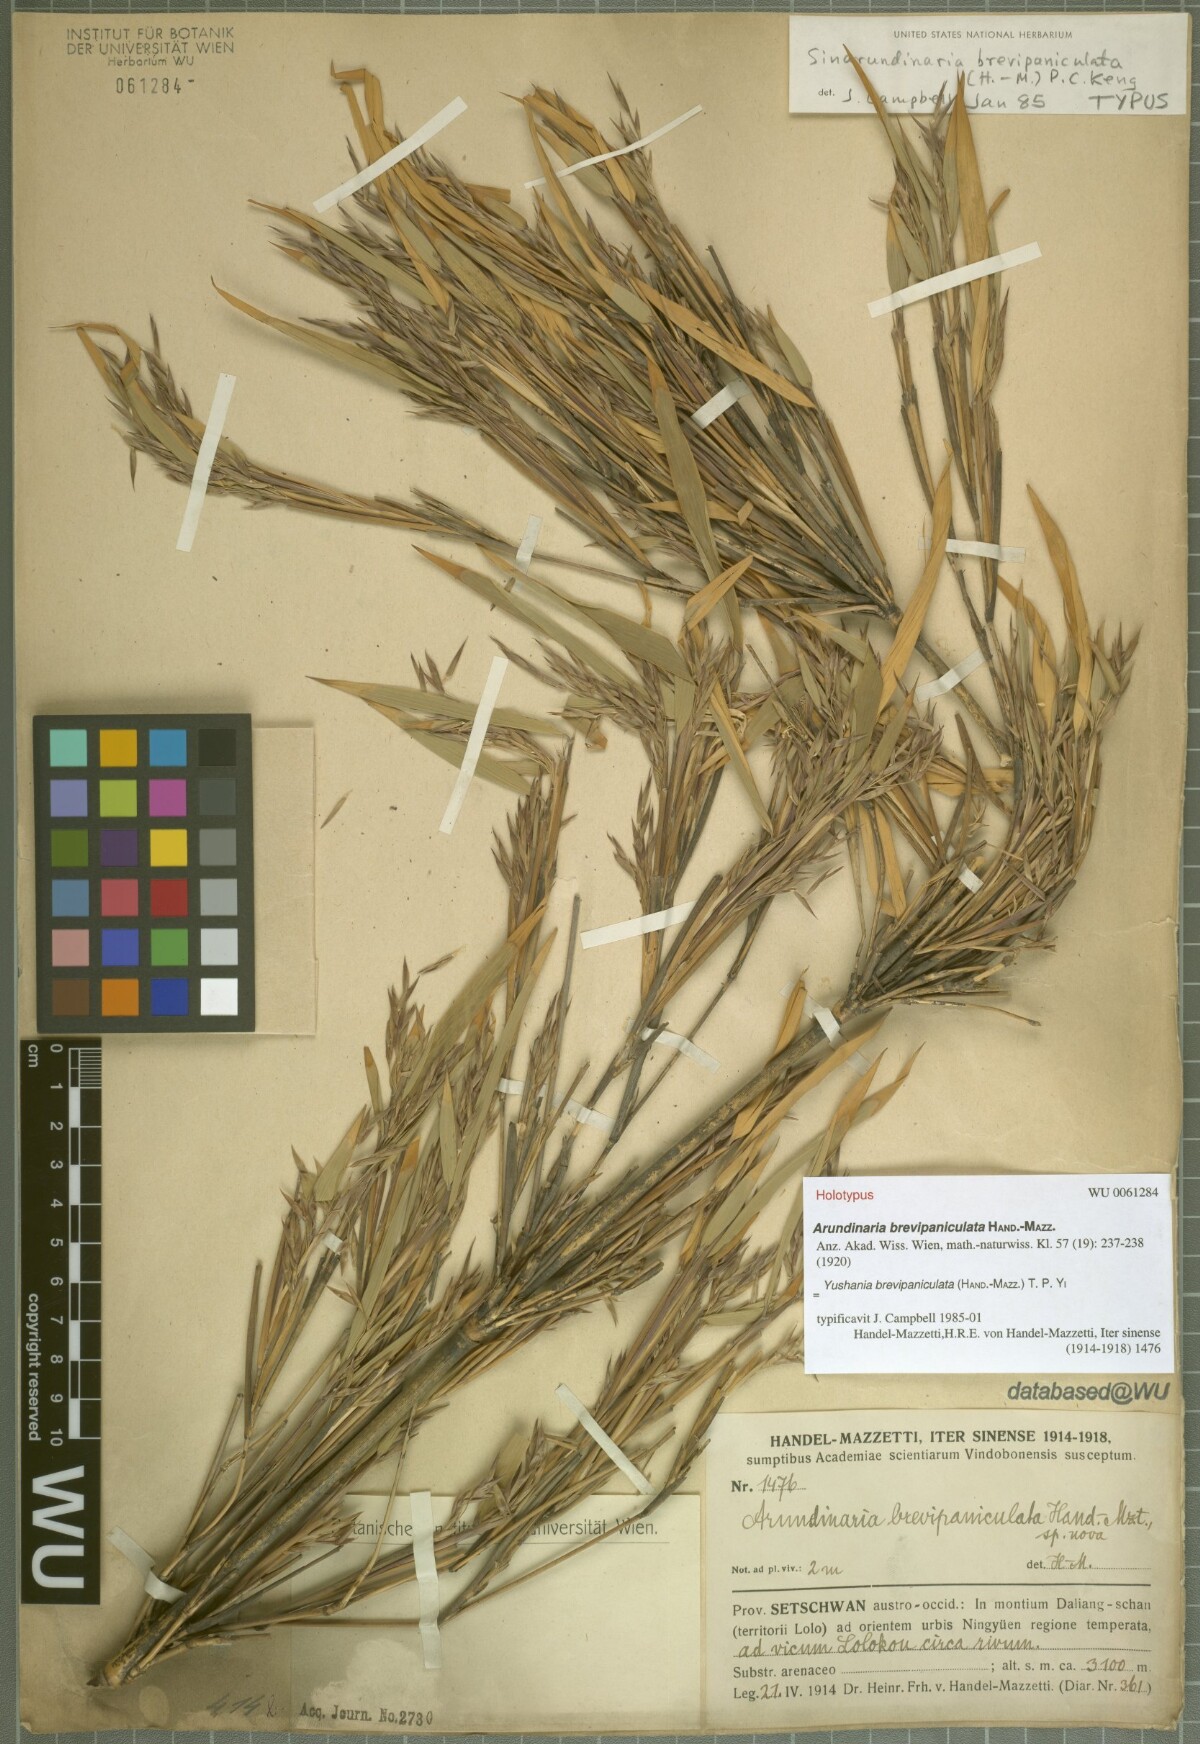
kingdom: Plantae
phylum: Tracheophyta
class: Liliopsida
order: Poales
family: Poaceae
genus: Yushania
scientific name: Yushania brevipaniculata
